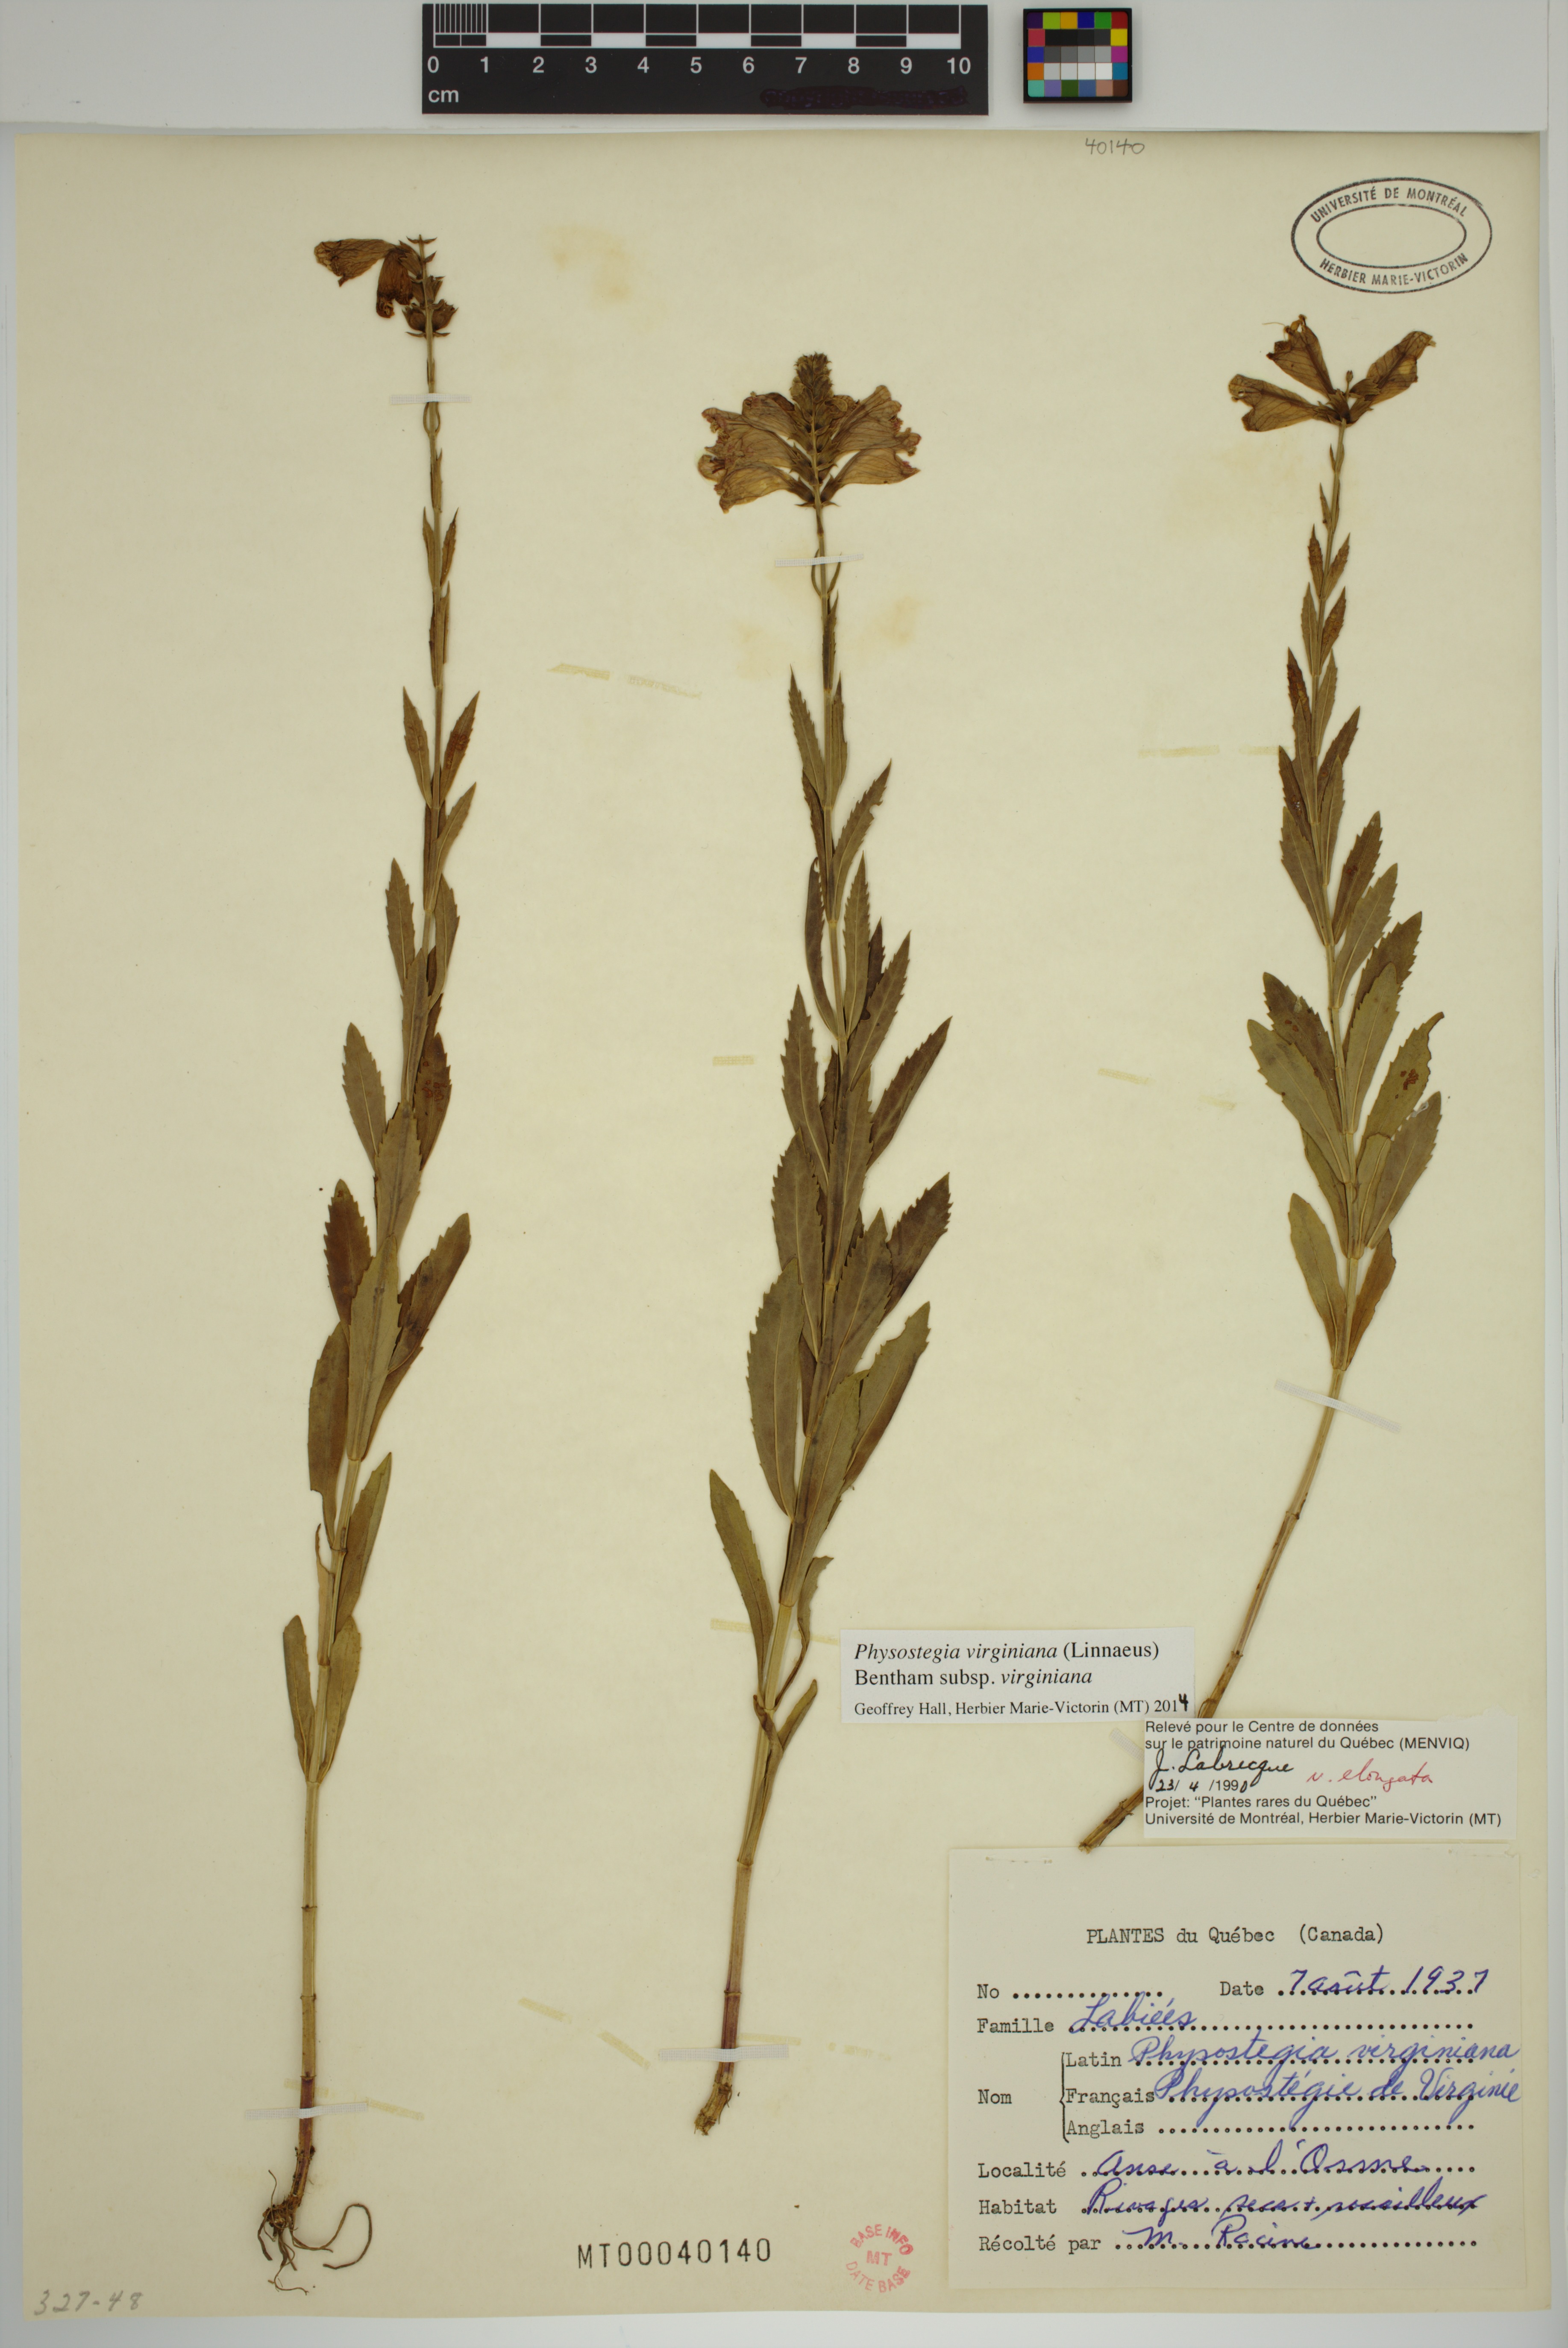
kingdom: Plantae
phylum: Tracheophyta
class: Magnoliopsida
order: Lamiales
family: Lamiaceae
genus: Physostegia
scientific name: Physostegia virginiana
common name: Obedient-plant
